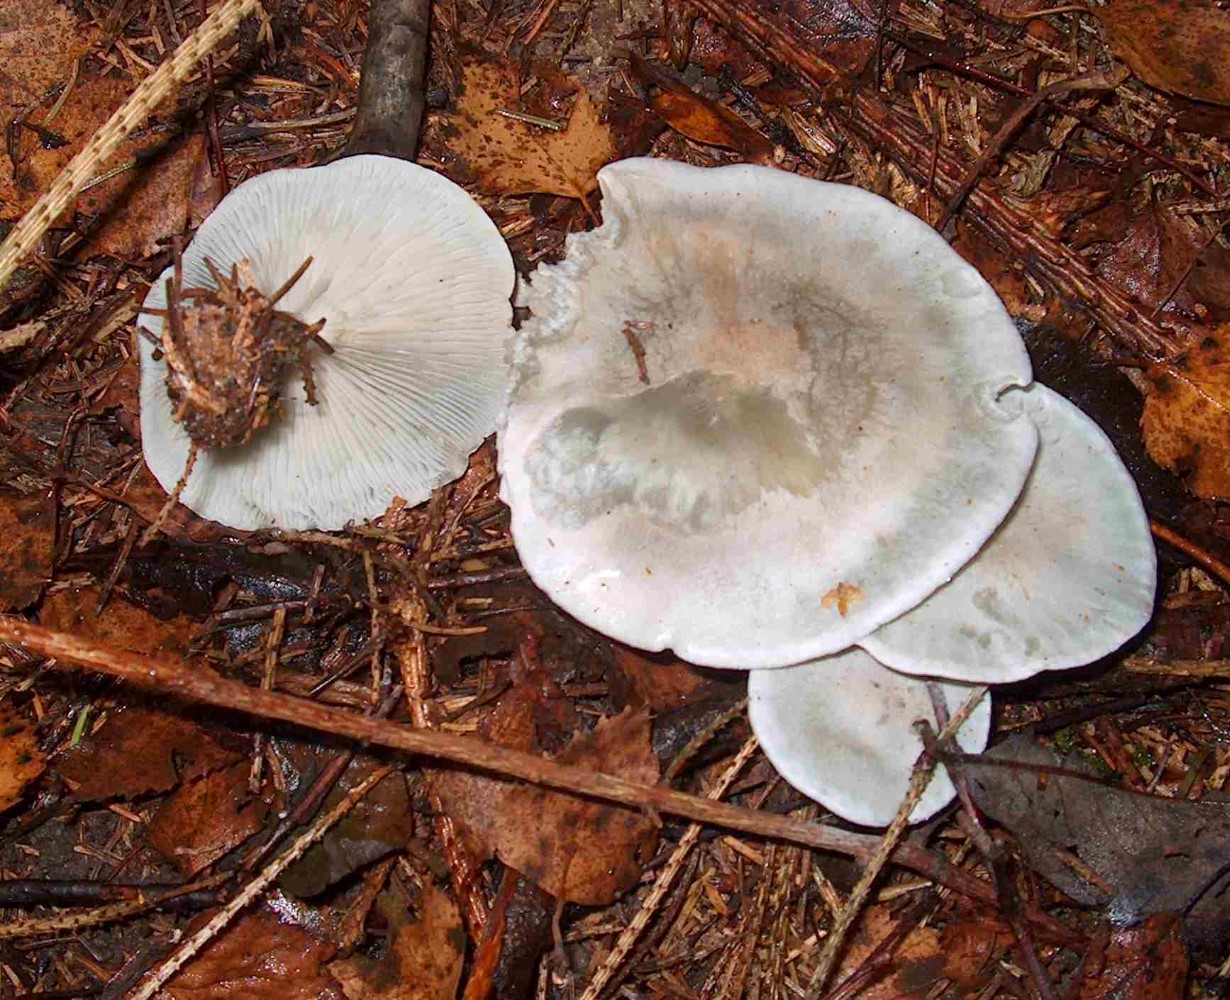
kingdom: Fungi
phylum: Basidiomycota
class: Agaricomycetes
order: Agaricales
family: Tricholomataceae
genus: Clitocybe
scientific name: Clitocybe odora
